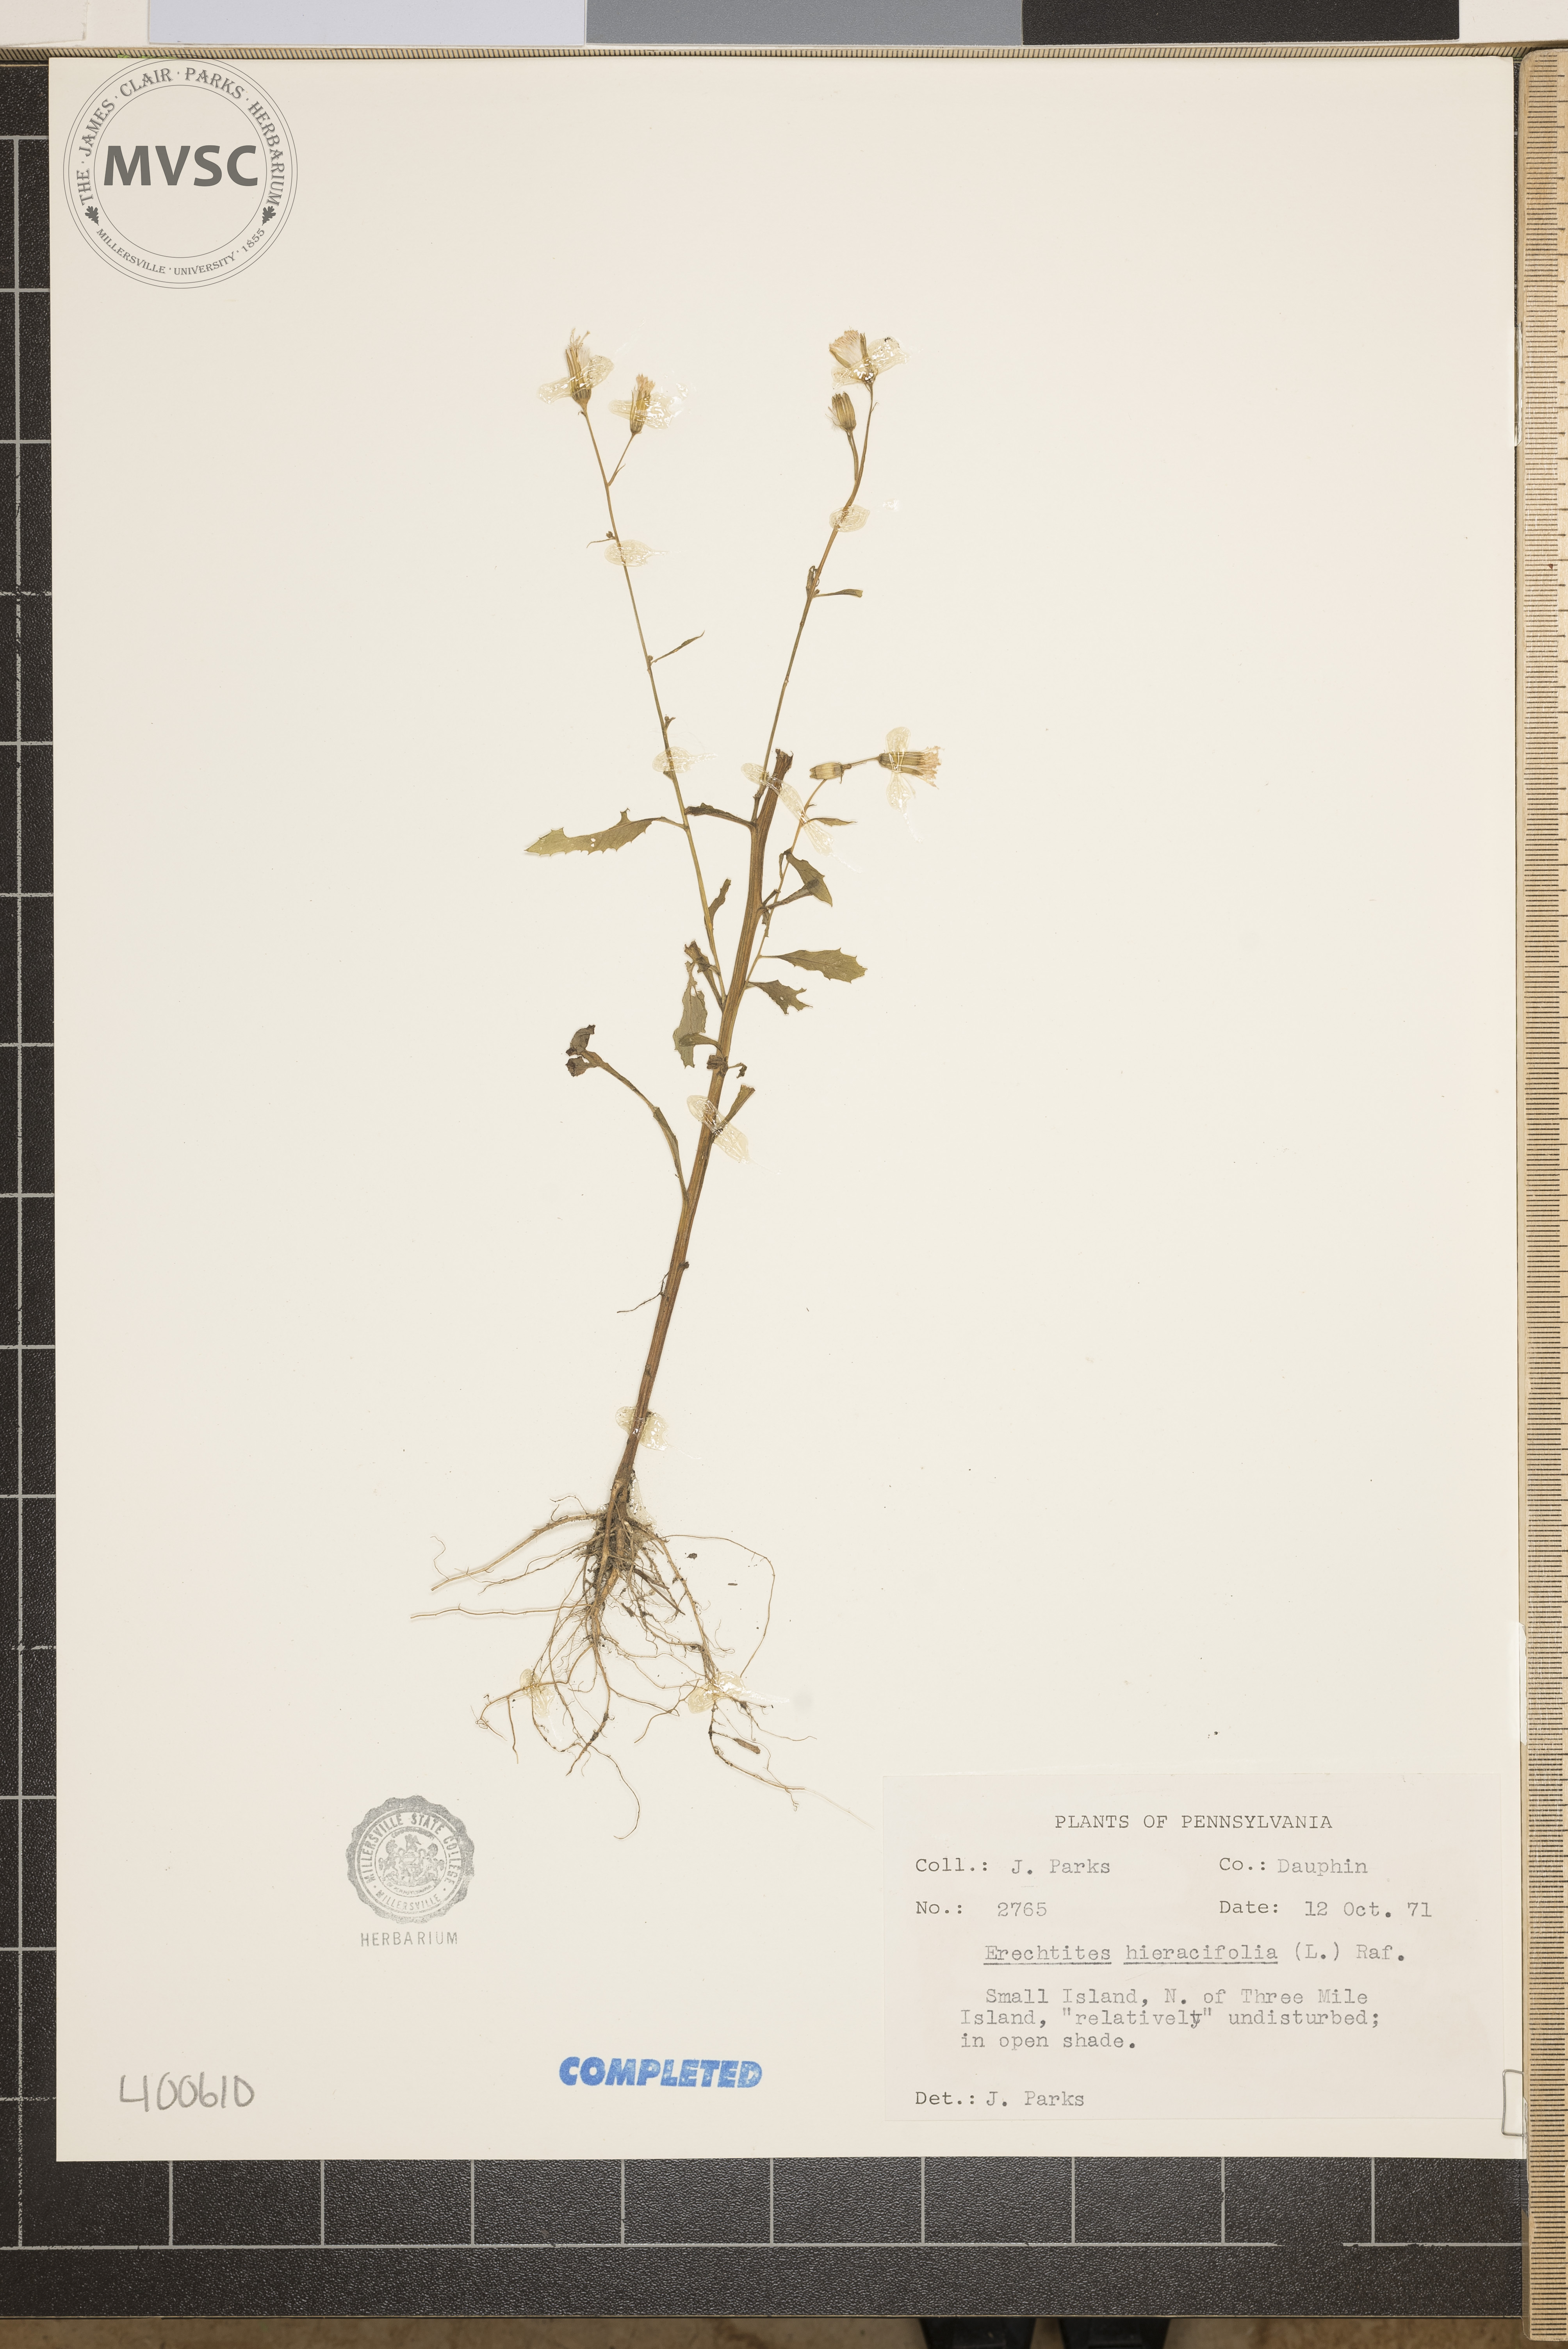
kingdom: Plantae
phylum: Tracheophyta
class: Magnoliopsida
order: Asterales
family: Asteraceae
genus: Erechtites
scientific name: Erechtites hieraciifolius
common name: American burnweed
